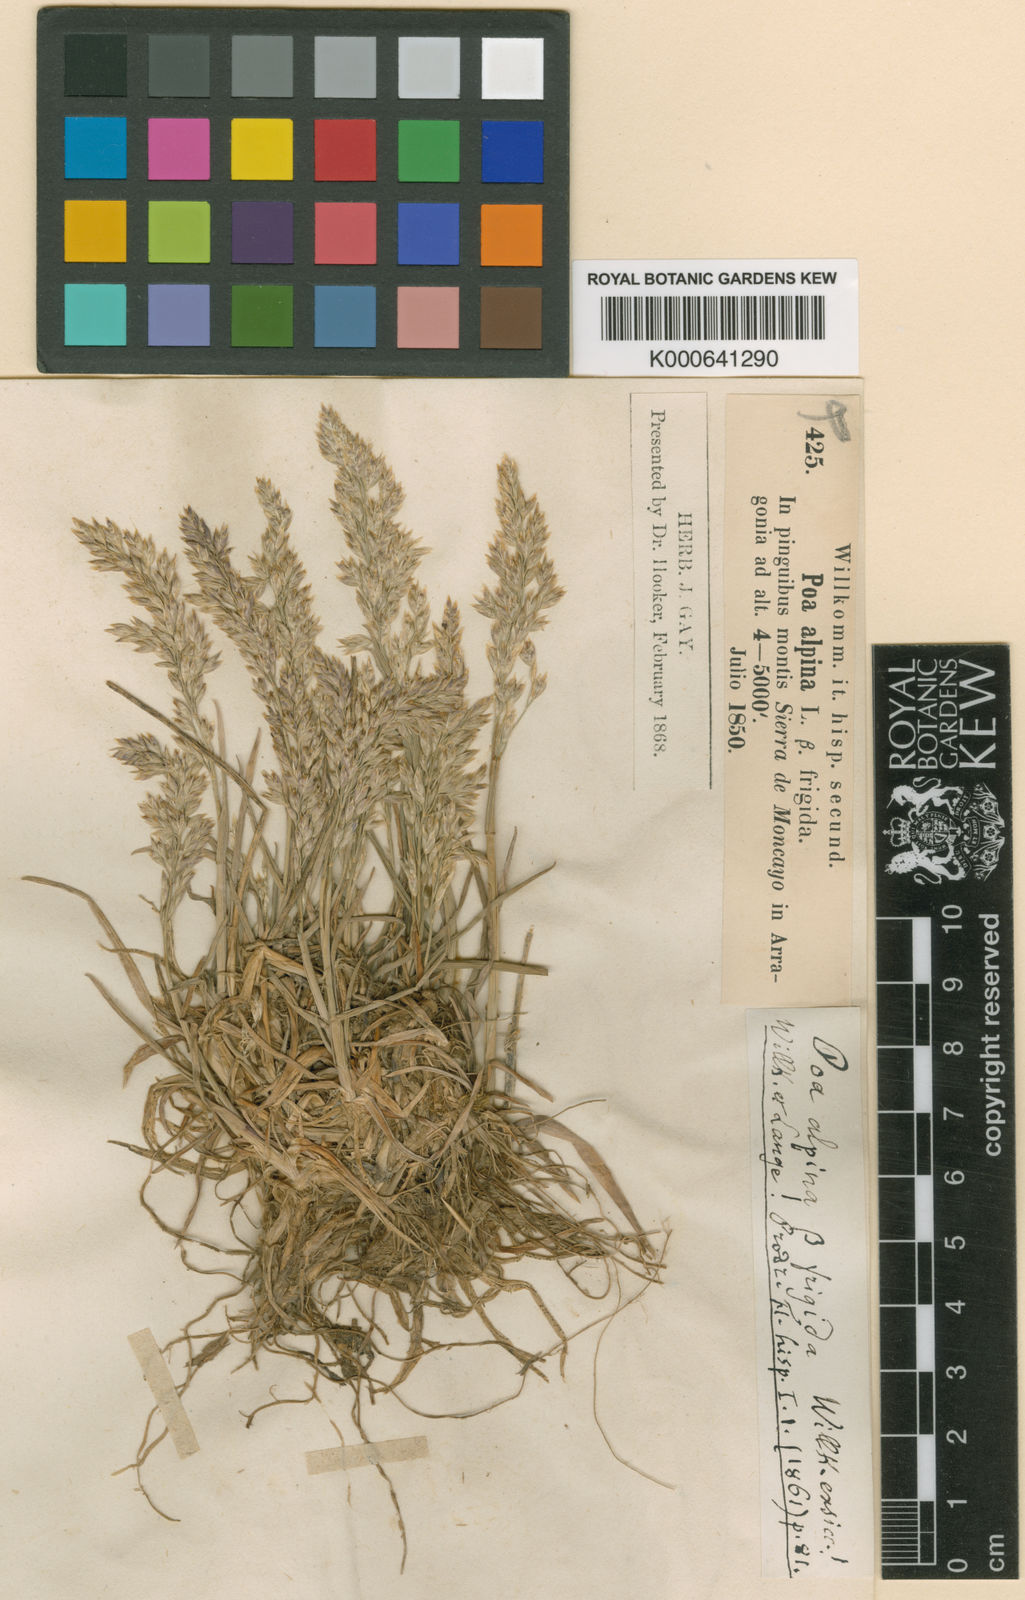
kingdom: Plantae
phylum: Tracheophyta
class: Liliopsida
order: Poales
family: Poaceae
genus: Poa
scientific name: Poa alpina
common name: Alpine bluegrass
